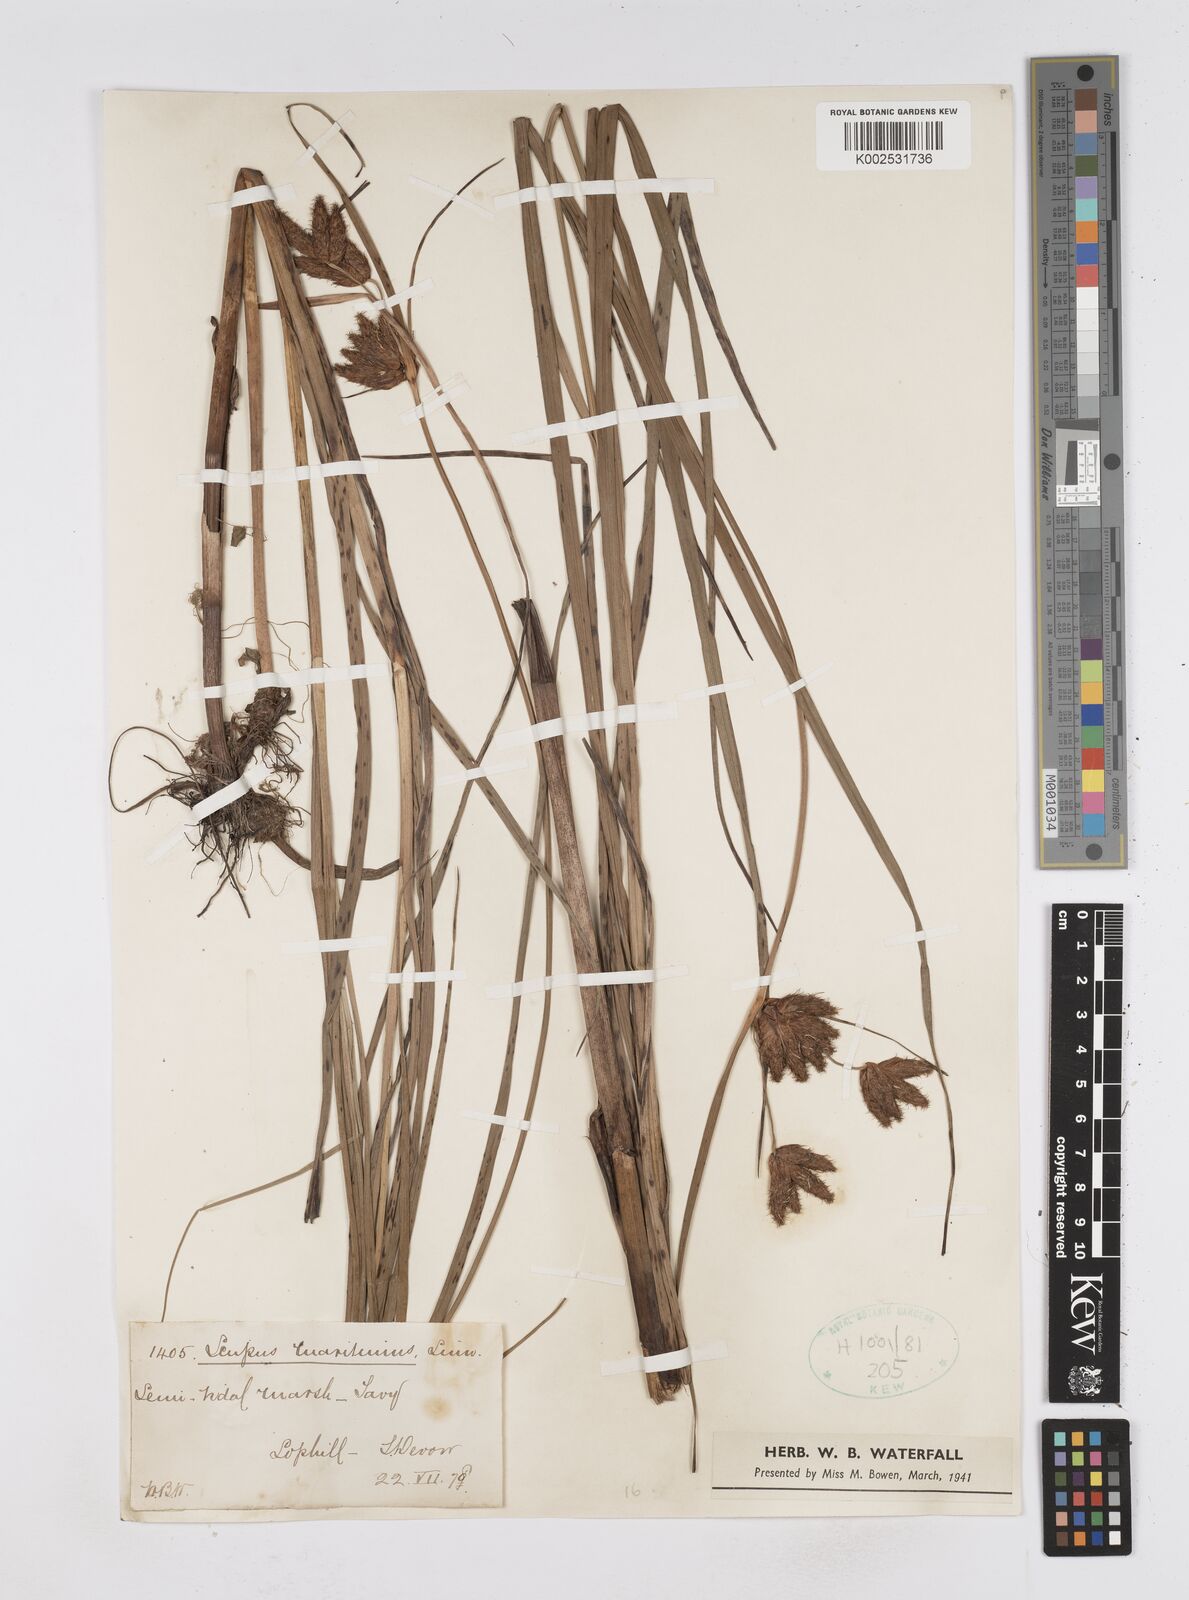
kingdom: Plantae
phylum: Tracheophyta
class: Liliopsida
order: Poales
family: Cyperaceae
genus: Bolboschoenus
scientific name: Bolboschoenus maritimus
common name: Sea club-rush
